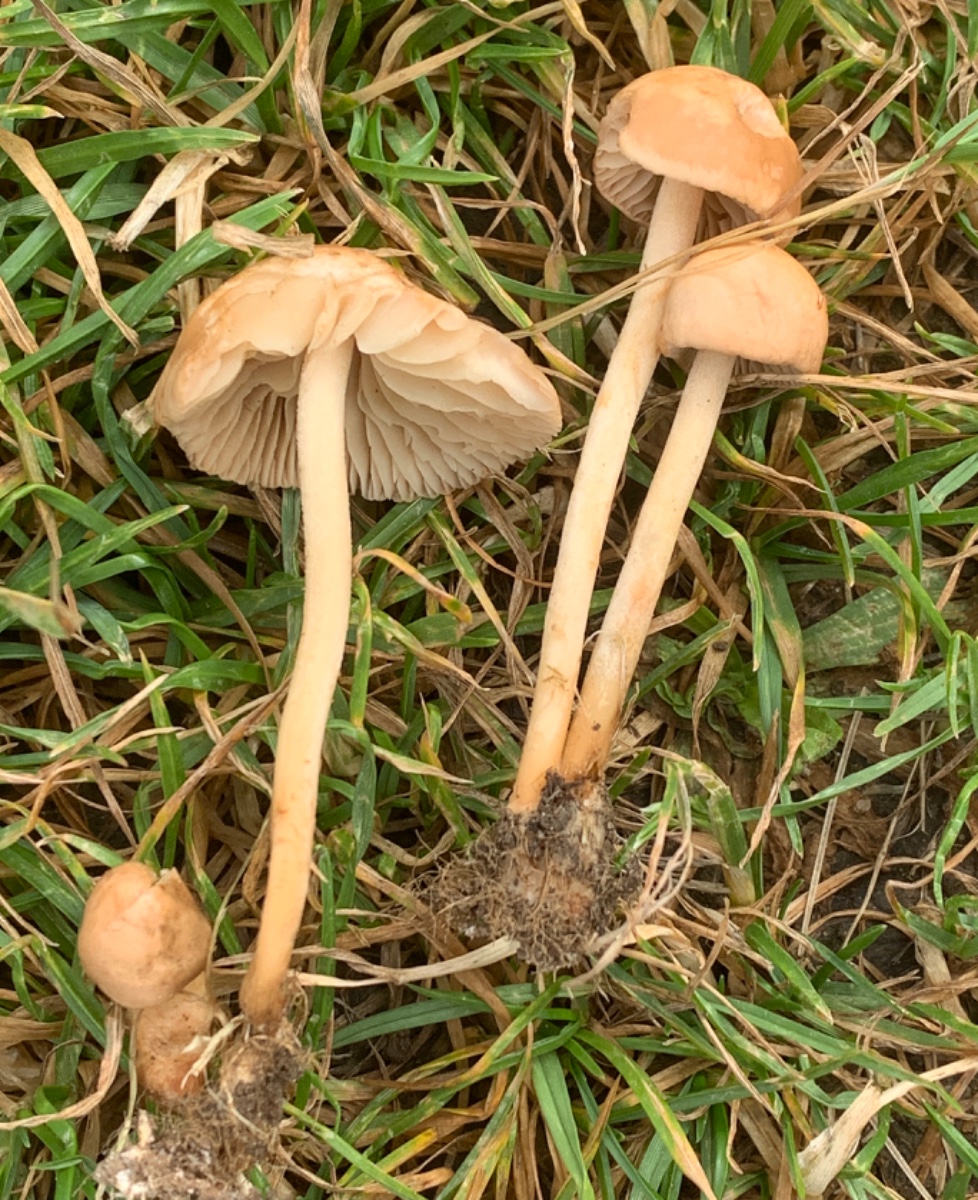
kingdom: Fungi
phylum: Basidiomycota
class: Agaricomycetes
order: Agaricales
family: Marasmiaceae
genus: Marasmius
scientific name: Marasmius oreades
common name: elledans-bruskhat
